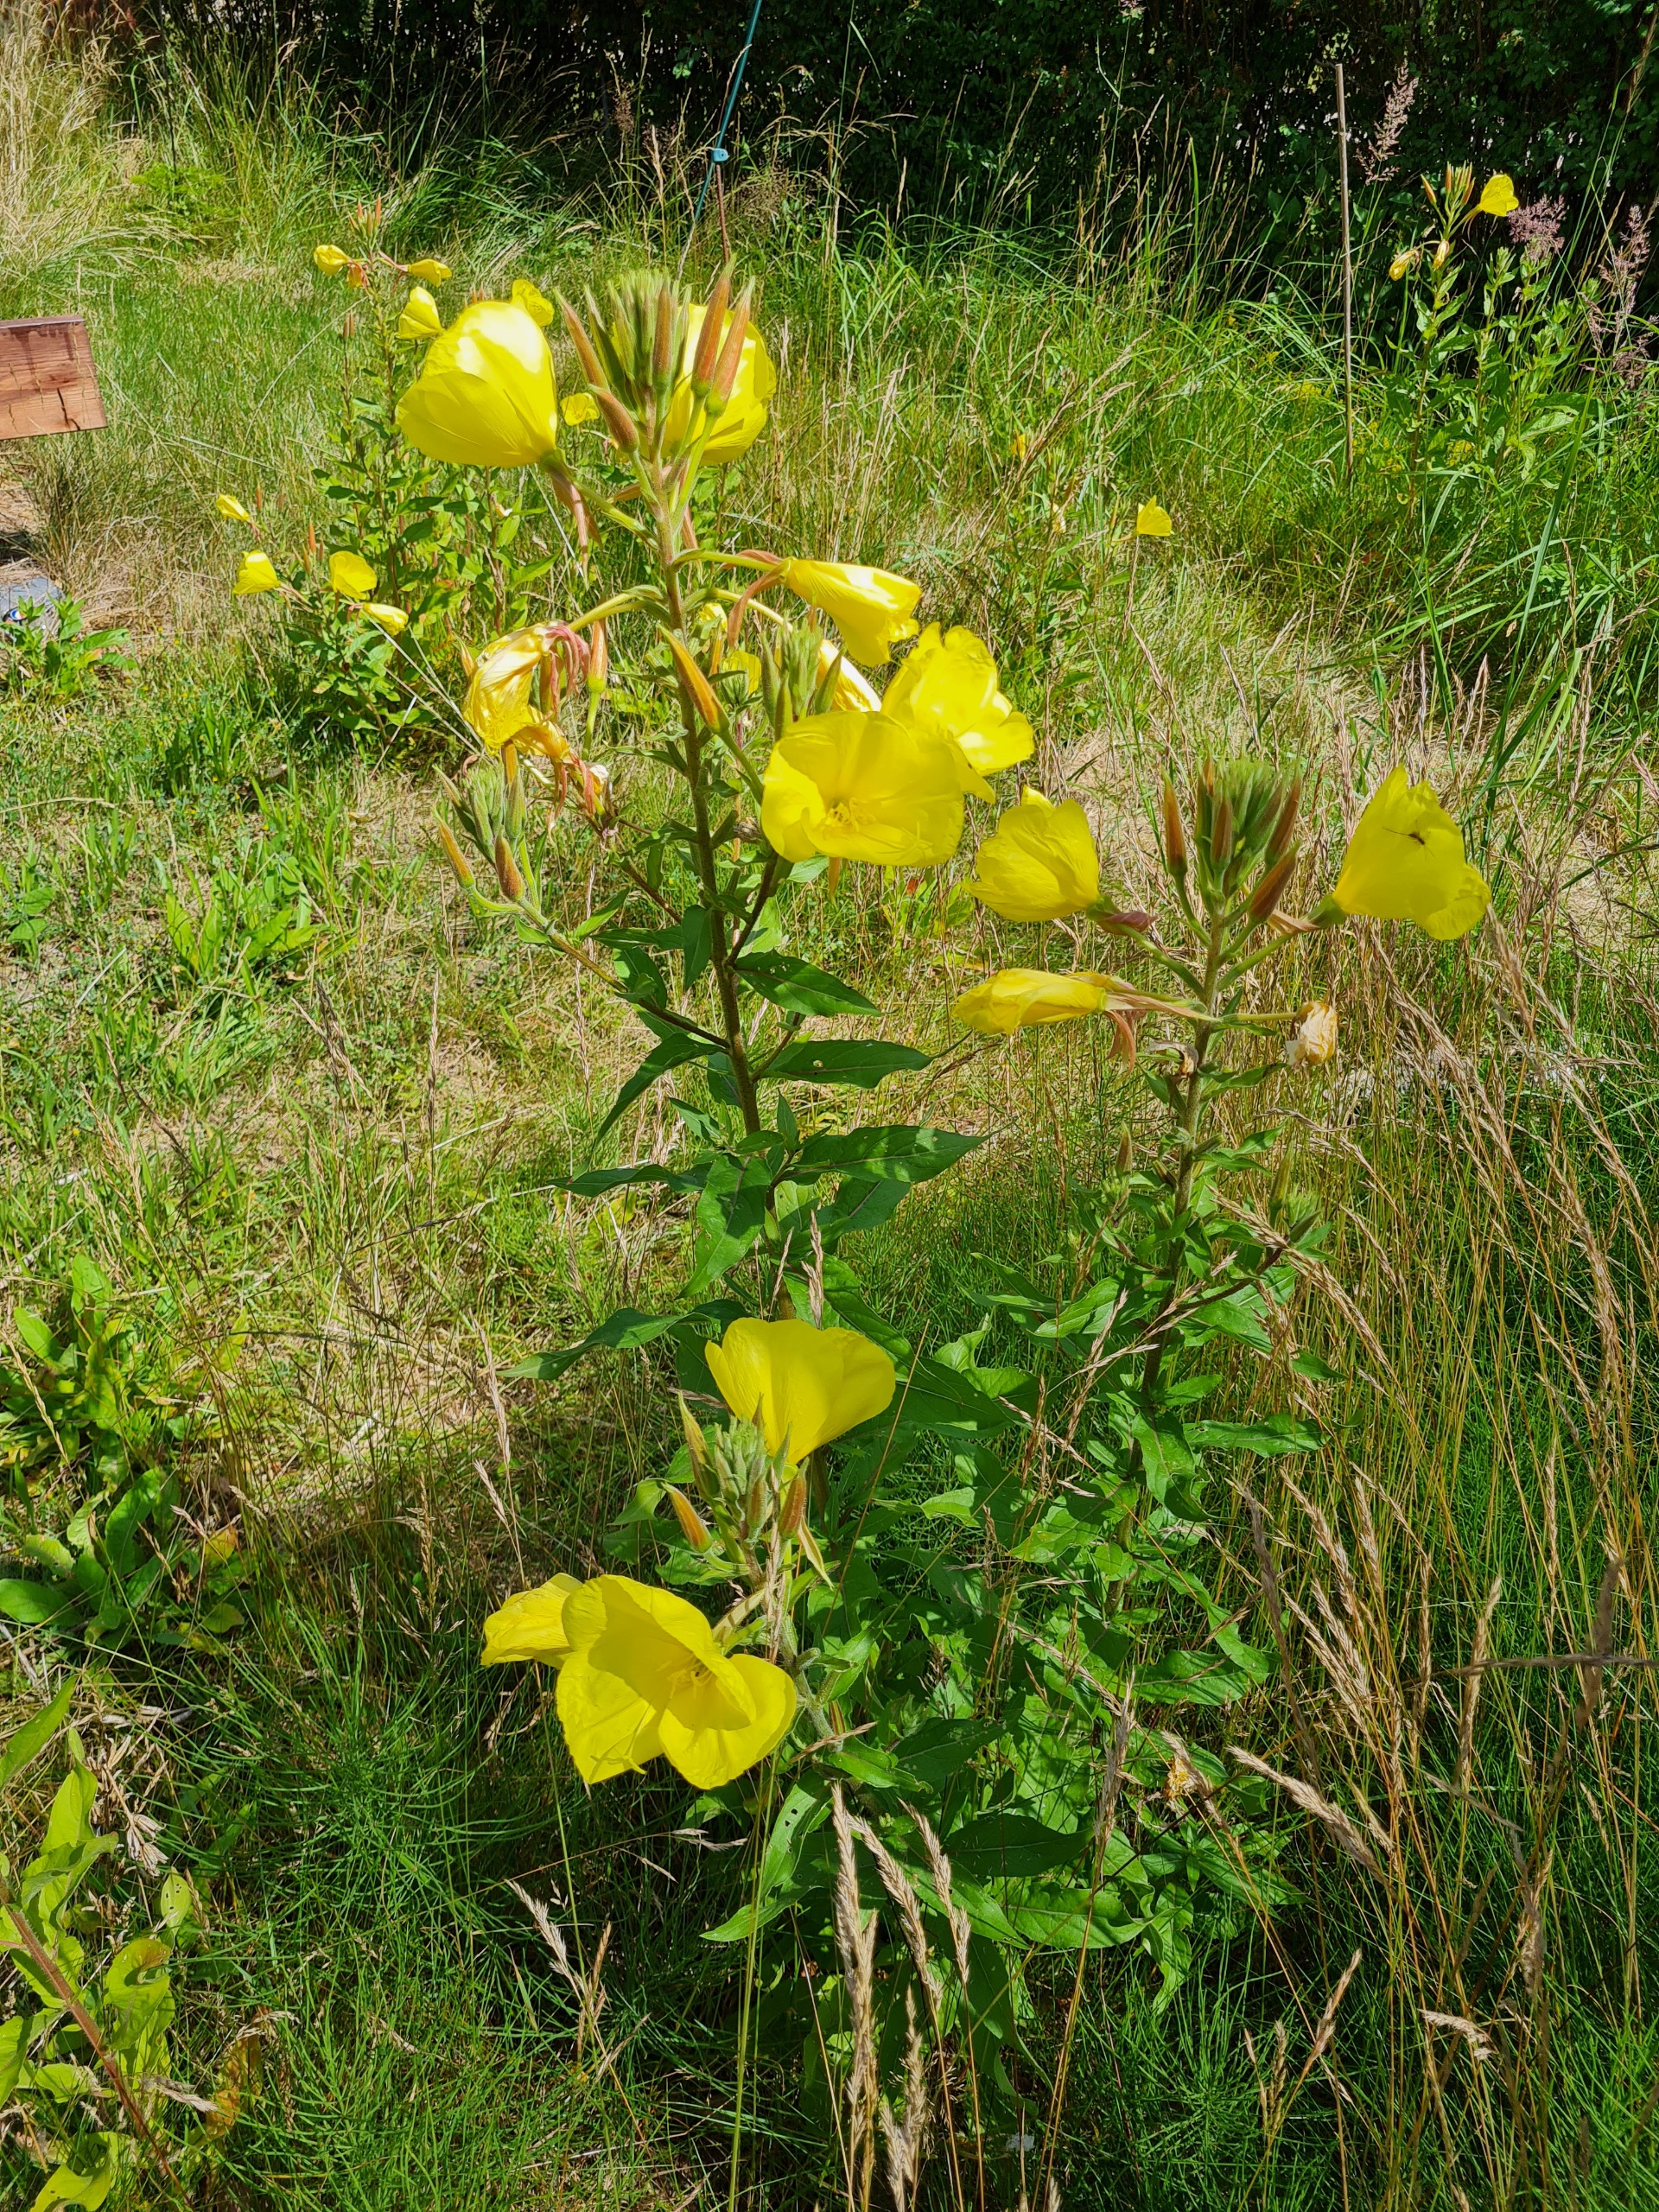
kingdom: Plantae
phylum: Tracheophyta
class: Magnoliopsida
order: Myrtales
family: Onagraceae
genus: Oenothera
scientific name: Oenothera glazioviana
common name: Kæmpe-natlys
